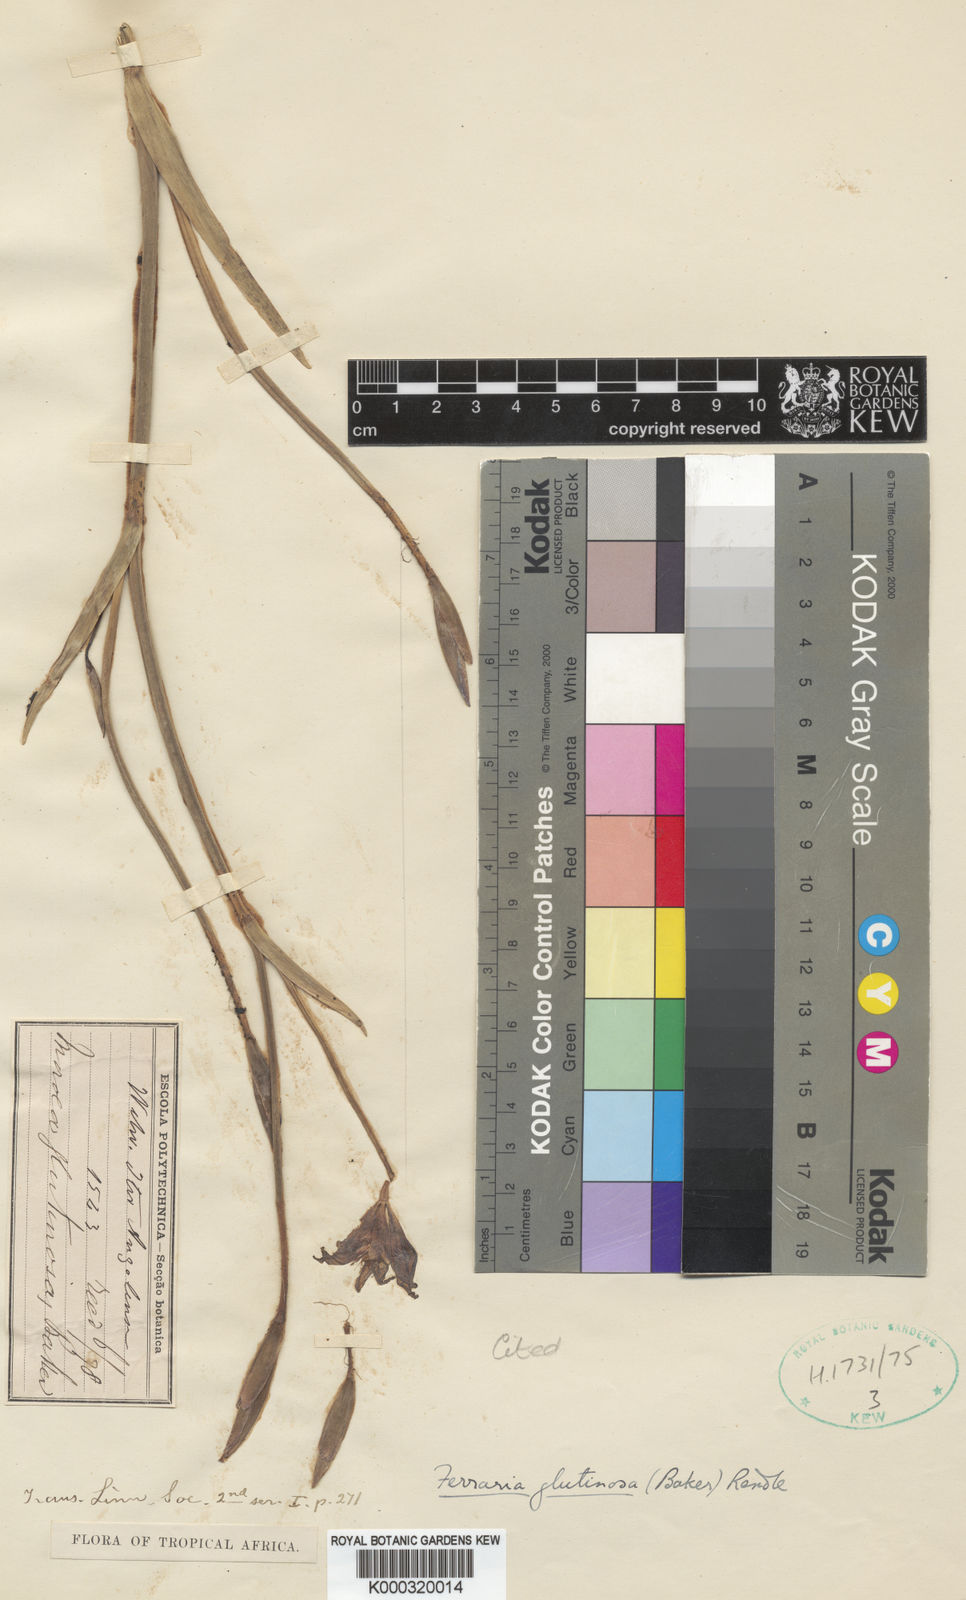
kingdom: Plantae
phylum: Tracheophyta
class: Liliopsida
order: Asparagales
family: Iridaceae
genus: Ferraria
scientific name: Ferraria glutinosa
